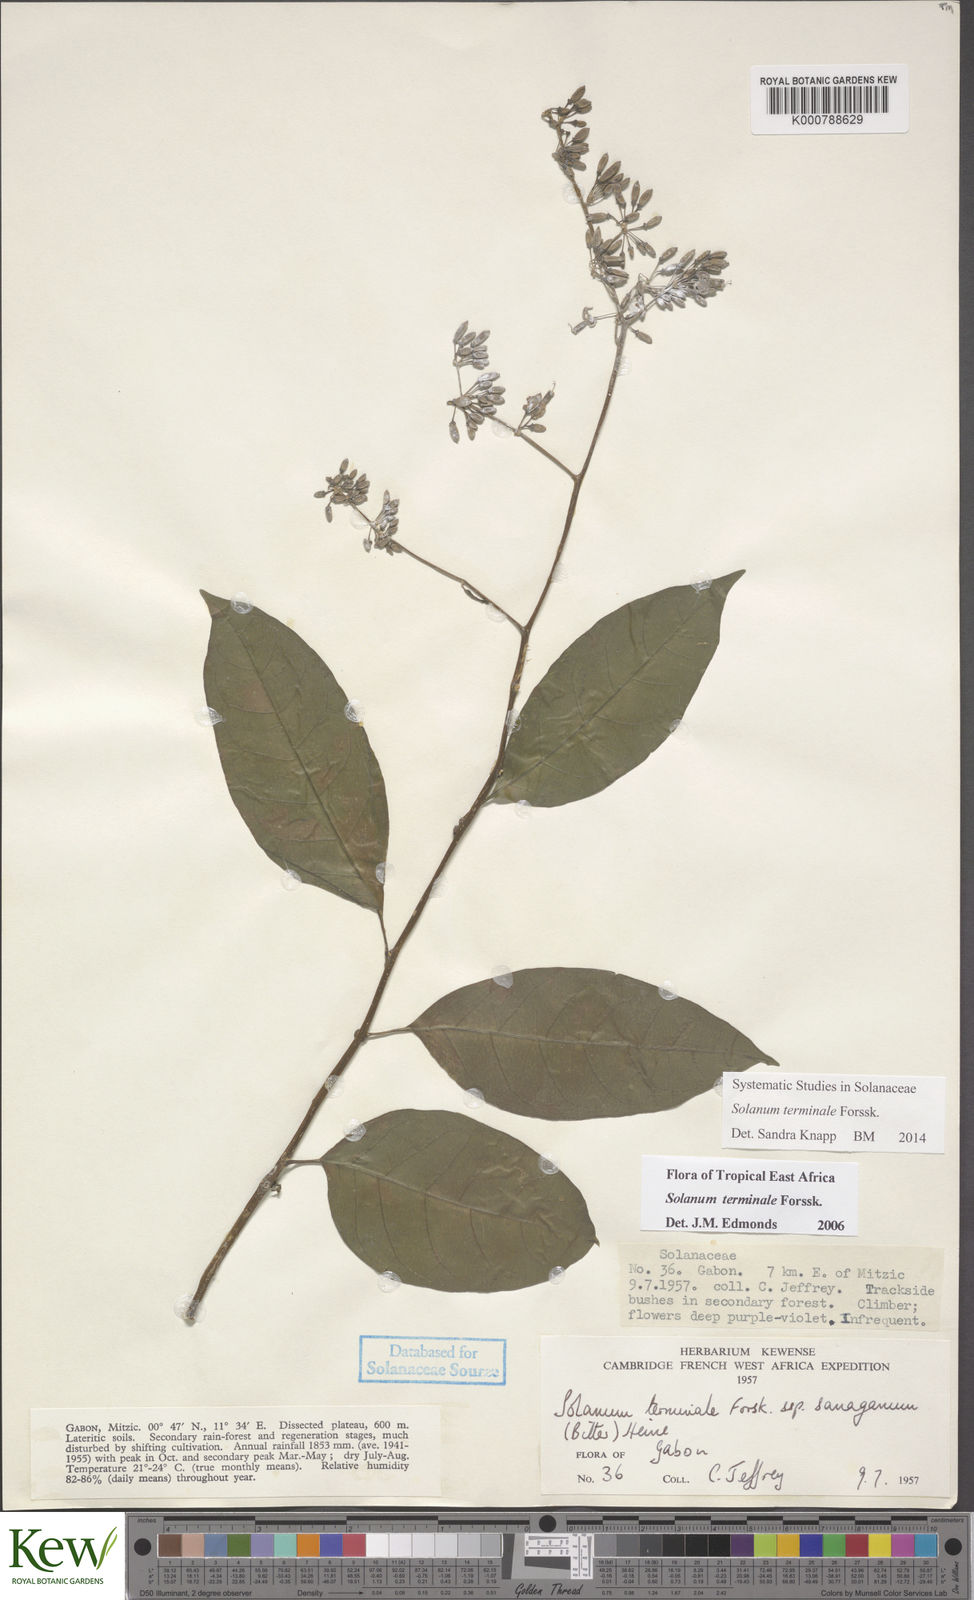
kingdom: Plantae
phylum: Tracheophyta
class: Magnoliopsida
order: Solanales
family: Solanaceae
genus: Solanum
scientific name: Solanum terminale
